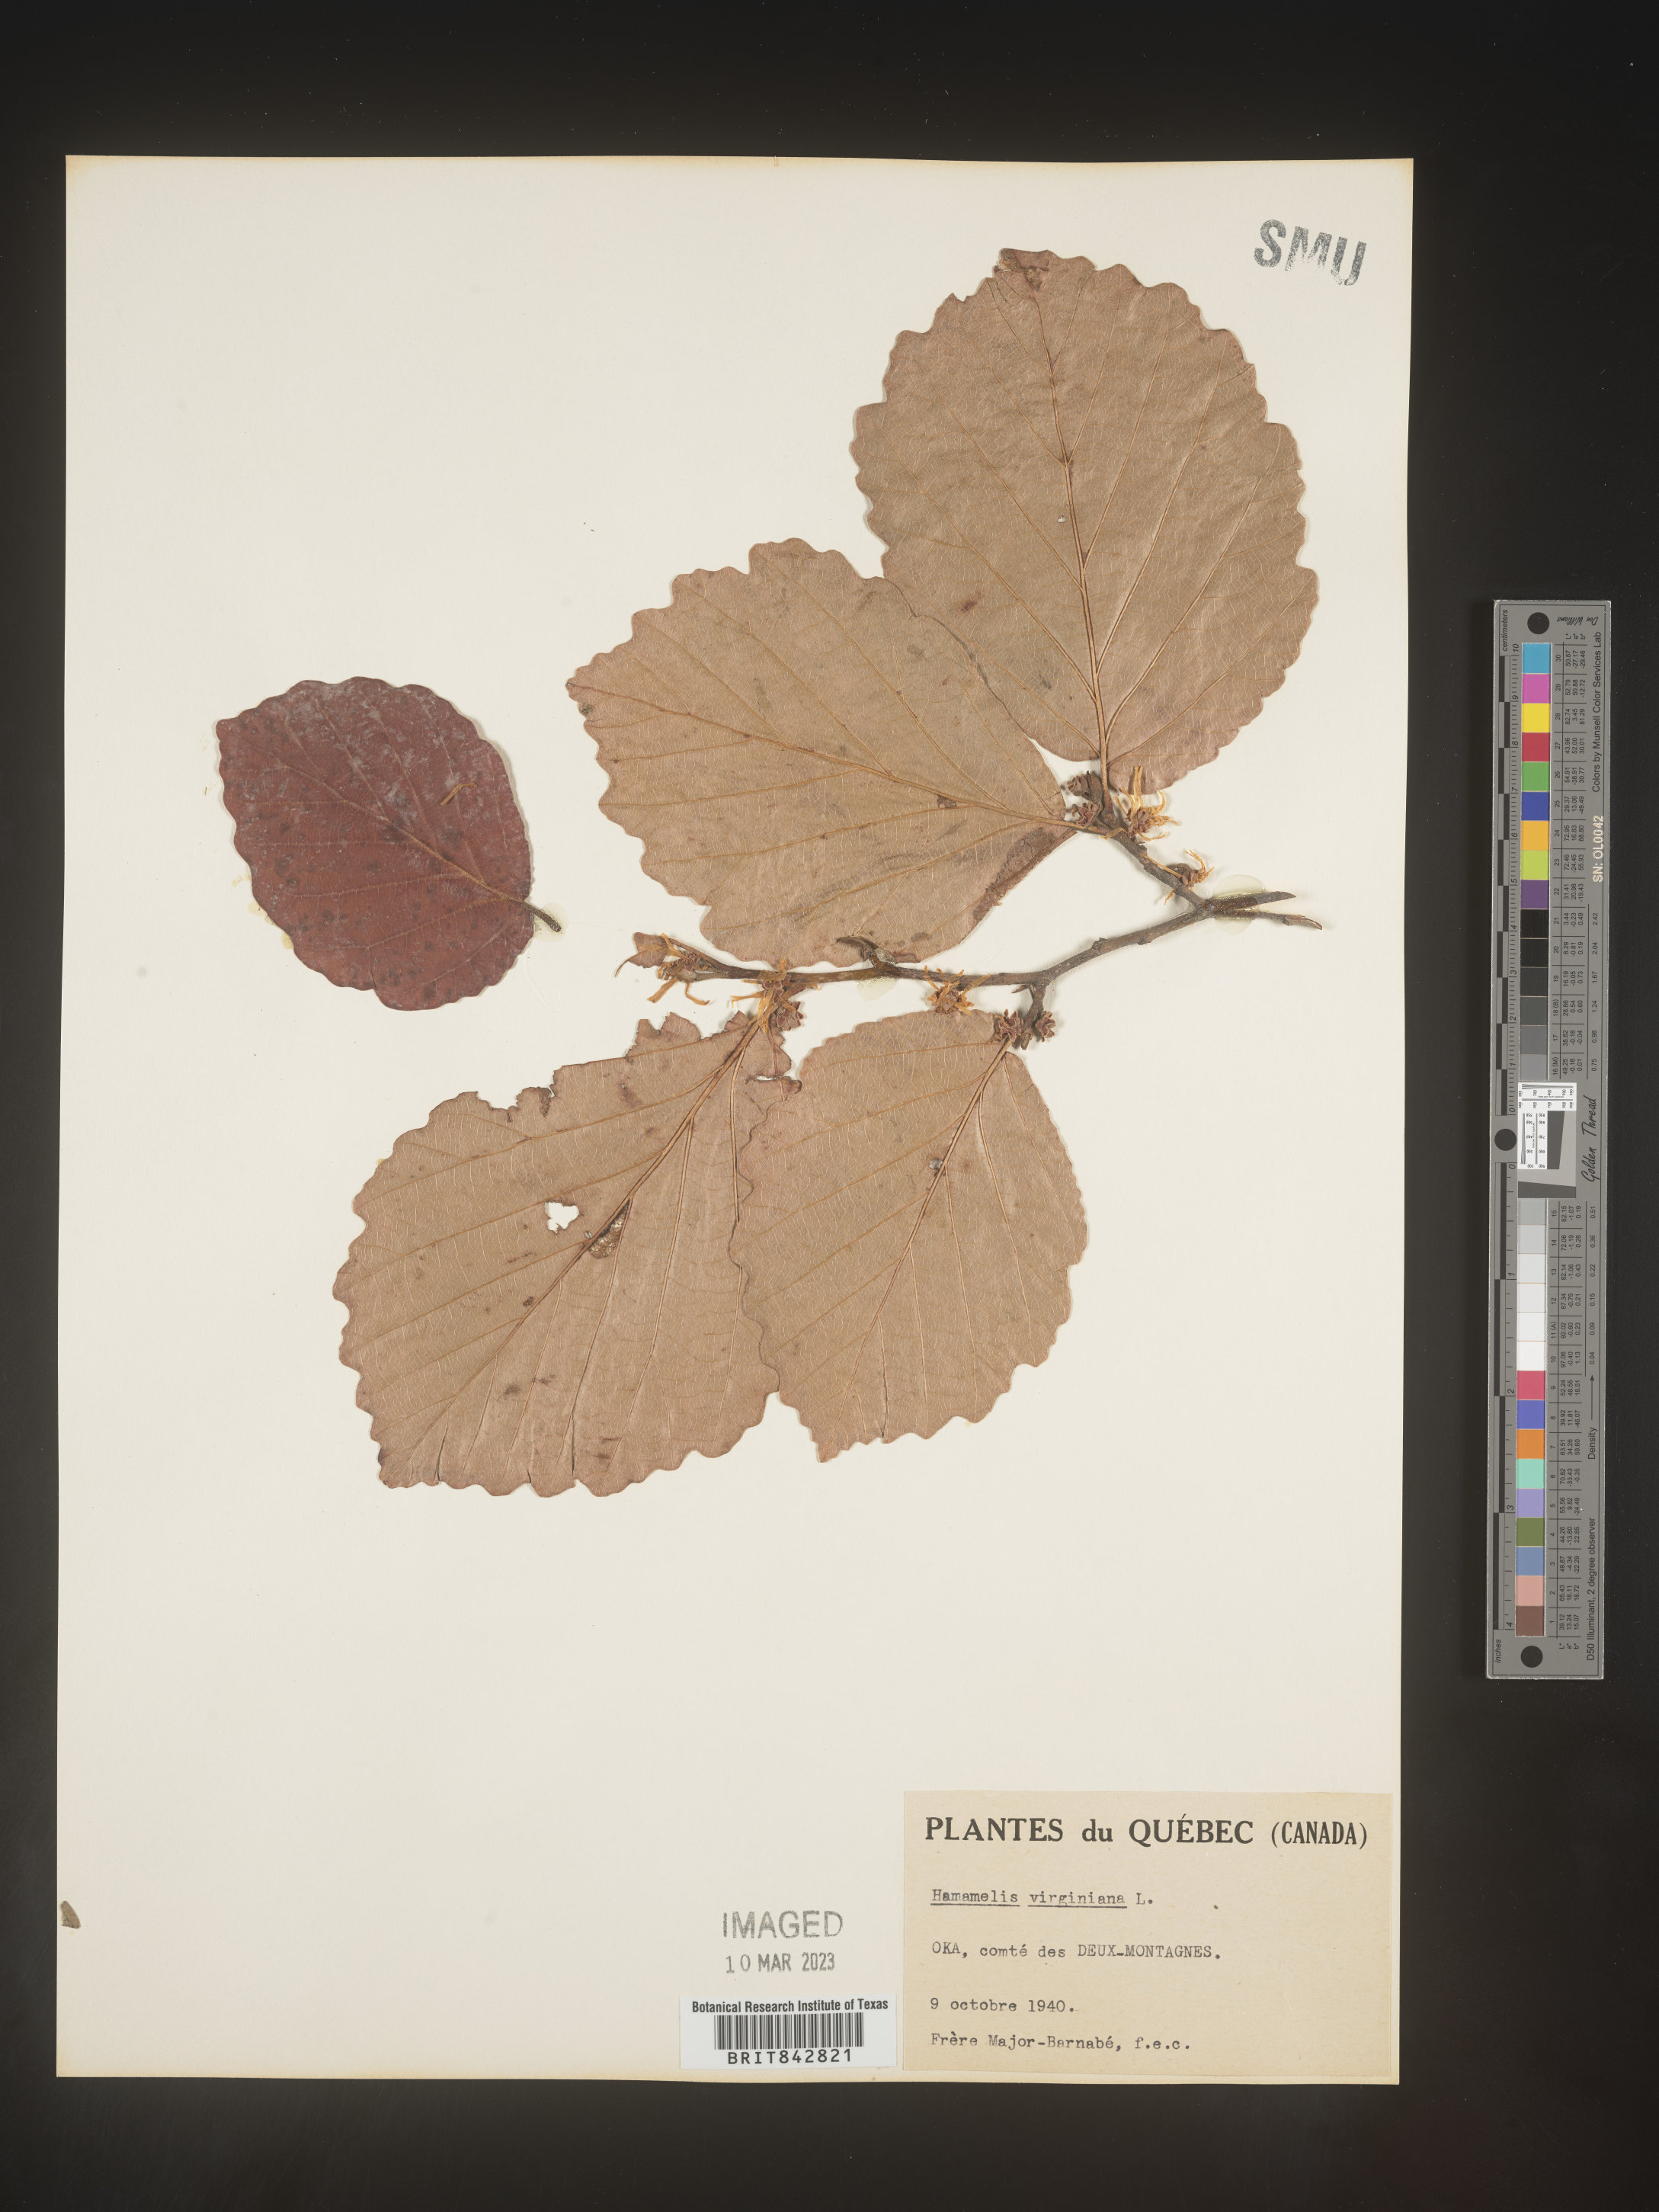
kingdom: Plantae
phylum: Tracheophyta
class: Magnoliopsida
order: Saxifragales
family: Hamamelidaceae
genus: Hamamelis
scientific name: Hamamelis virginiana
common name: Witch-hazel
